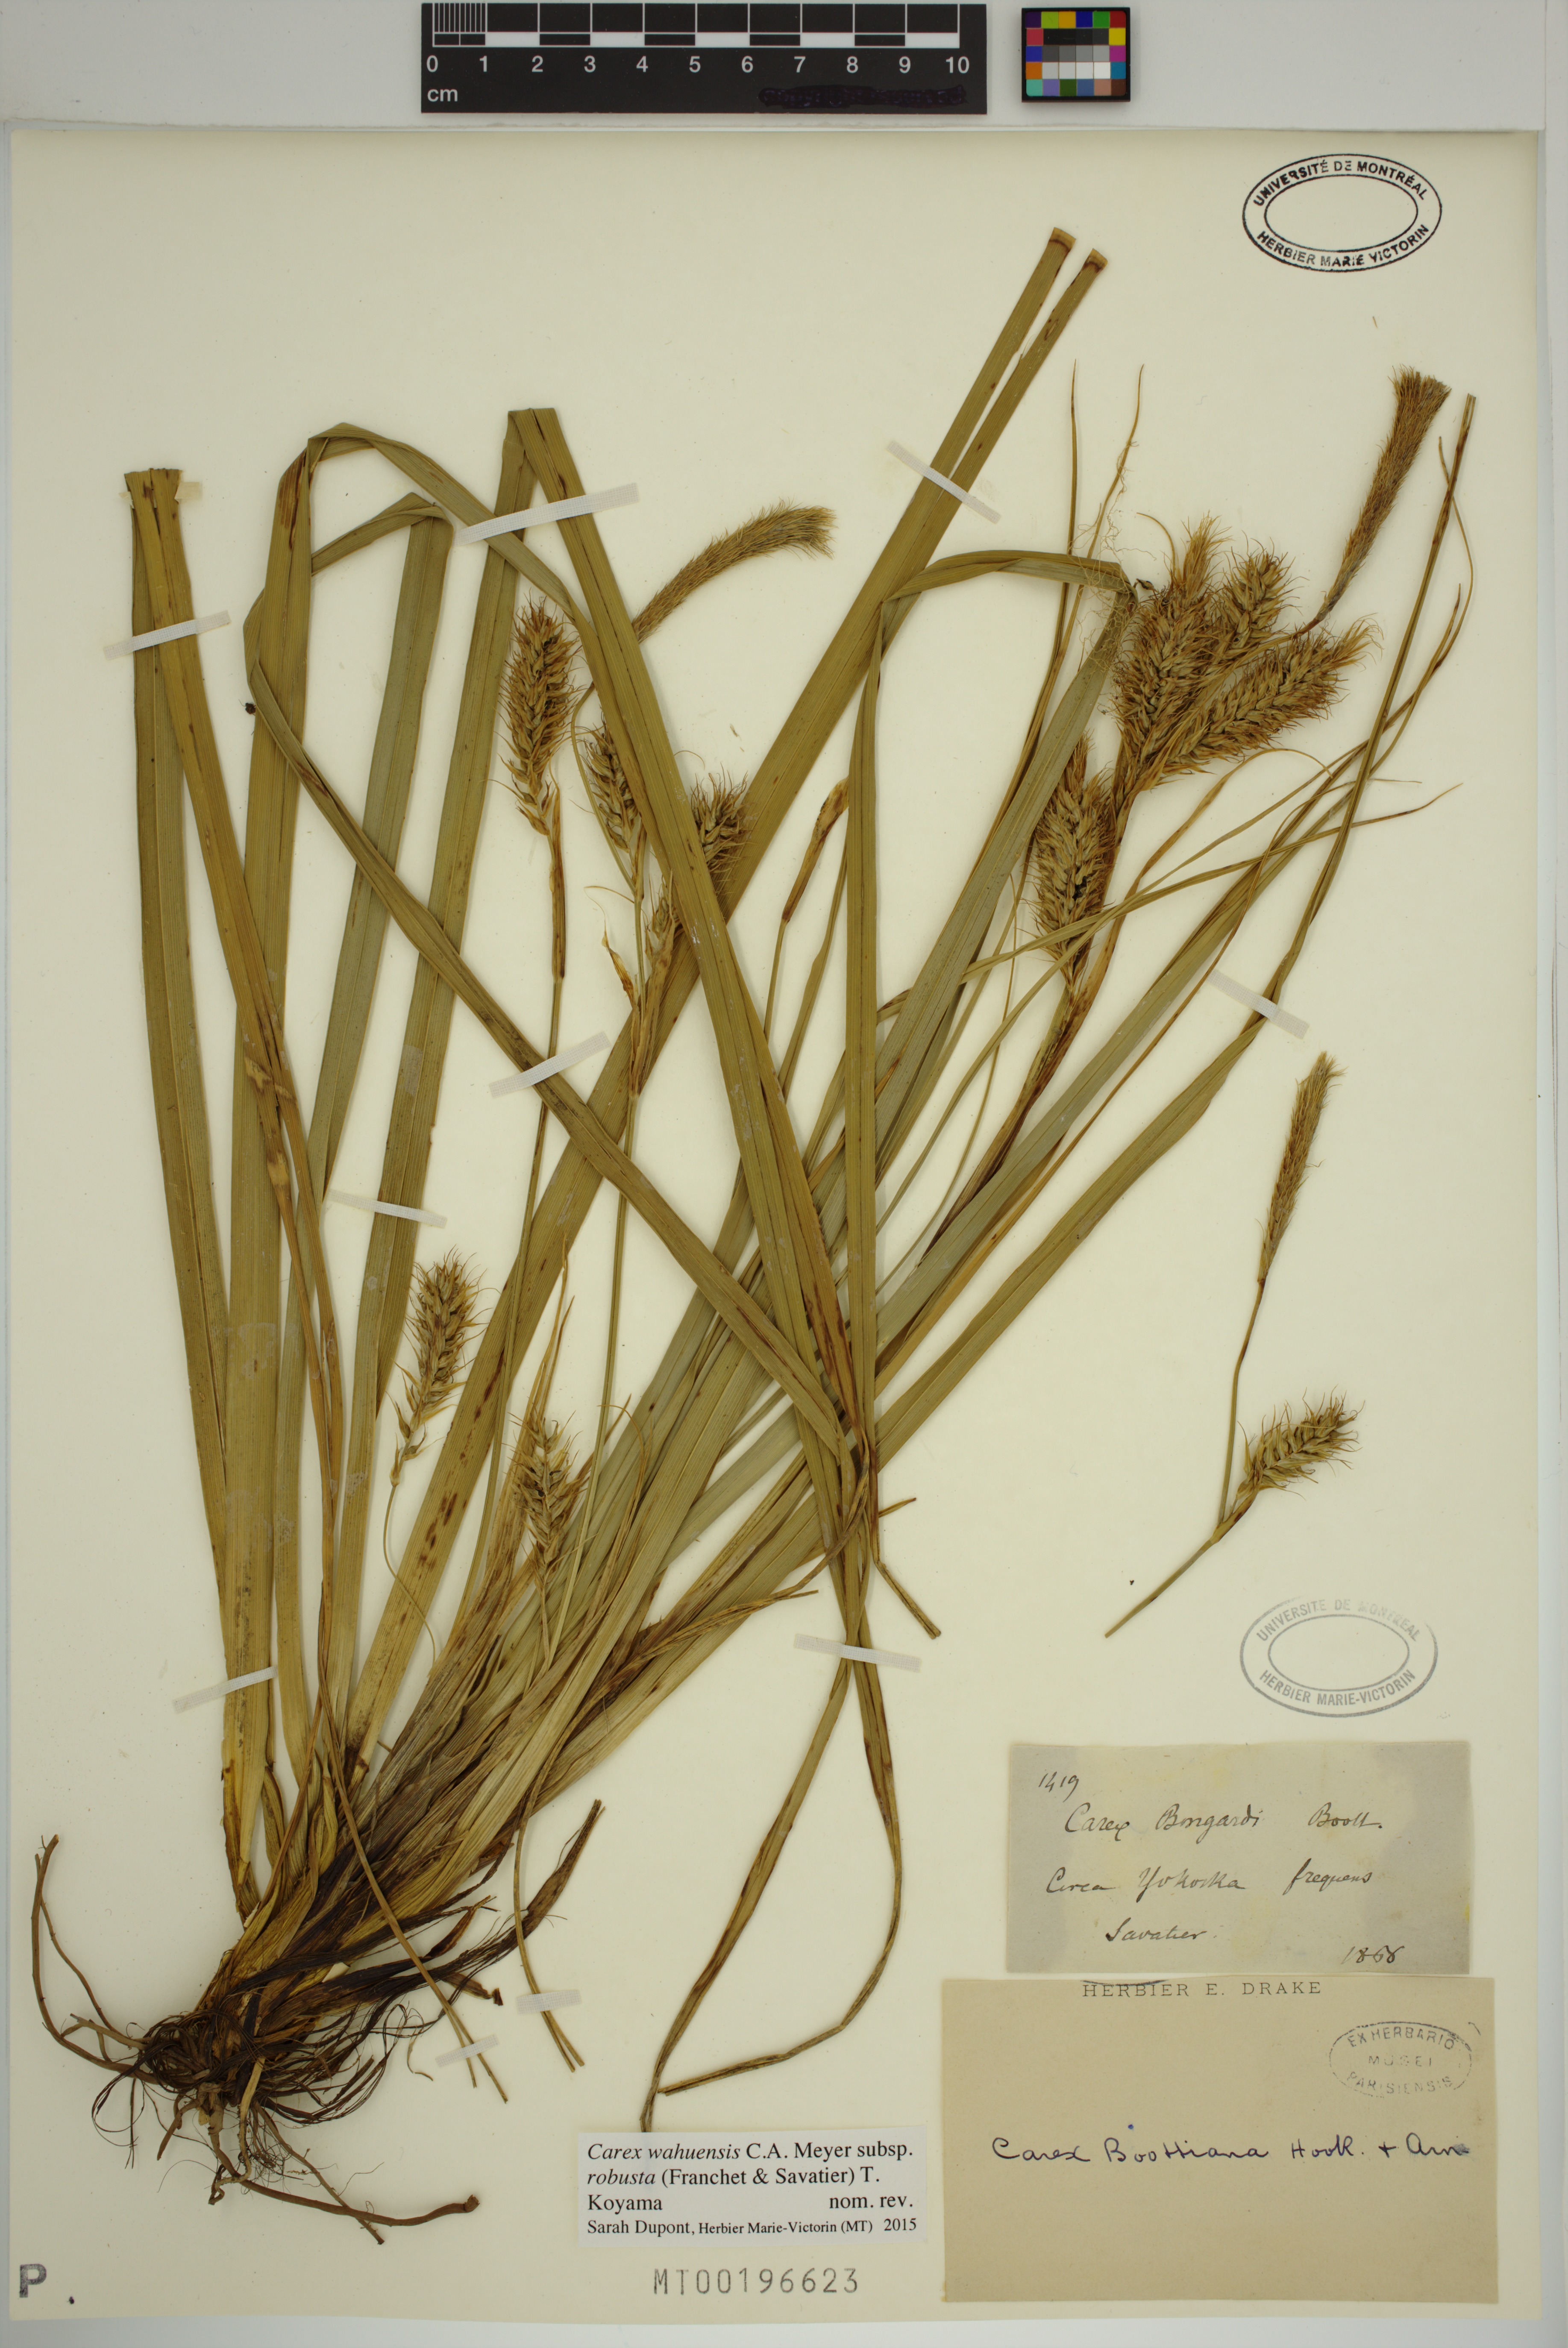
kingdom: Plantae
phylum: Tracheophyta
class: Liliopsida
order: Poales
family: Cyperaceae
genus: Carex
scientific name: Carex wahuensis
